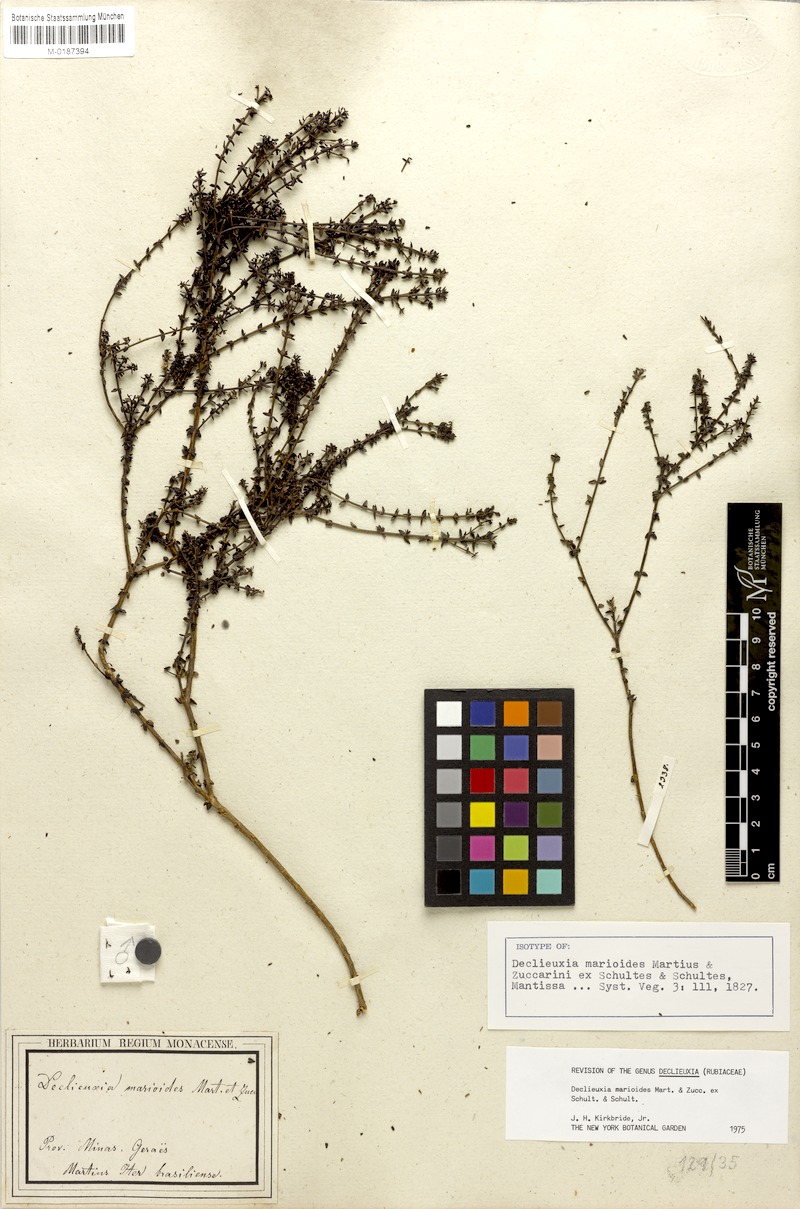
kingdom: Plantae
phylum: Tracheophyta
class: Magnoliopsida
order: Gentianales
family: Rubiaceae
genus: Declieuxia
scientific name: Declieuxia marioides
